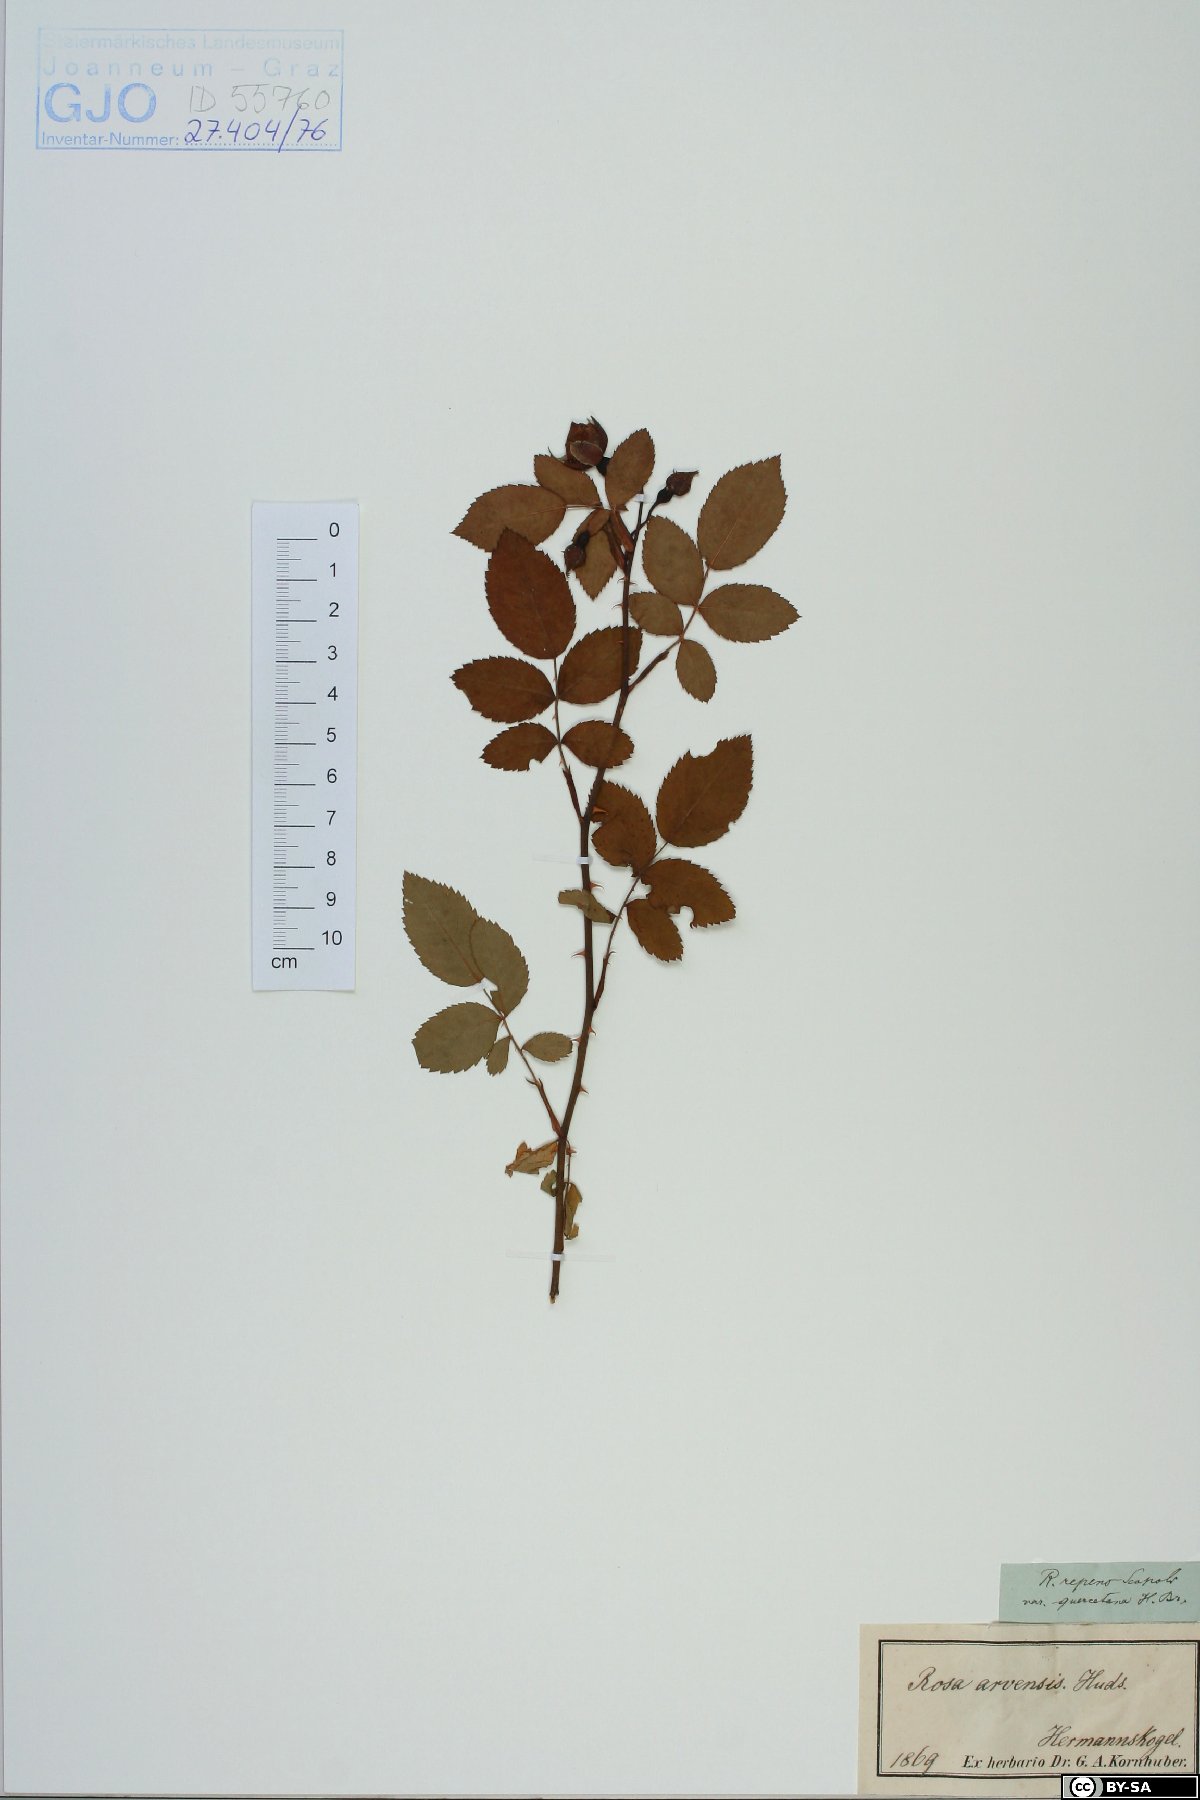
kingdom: Plantae
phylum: Tracheophyta
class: Magnoliopsida
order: Rosales
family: Rosaceae
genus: Rosa
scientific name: Rosa arvensis
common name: Field rose
